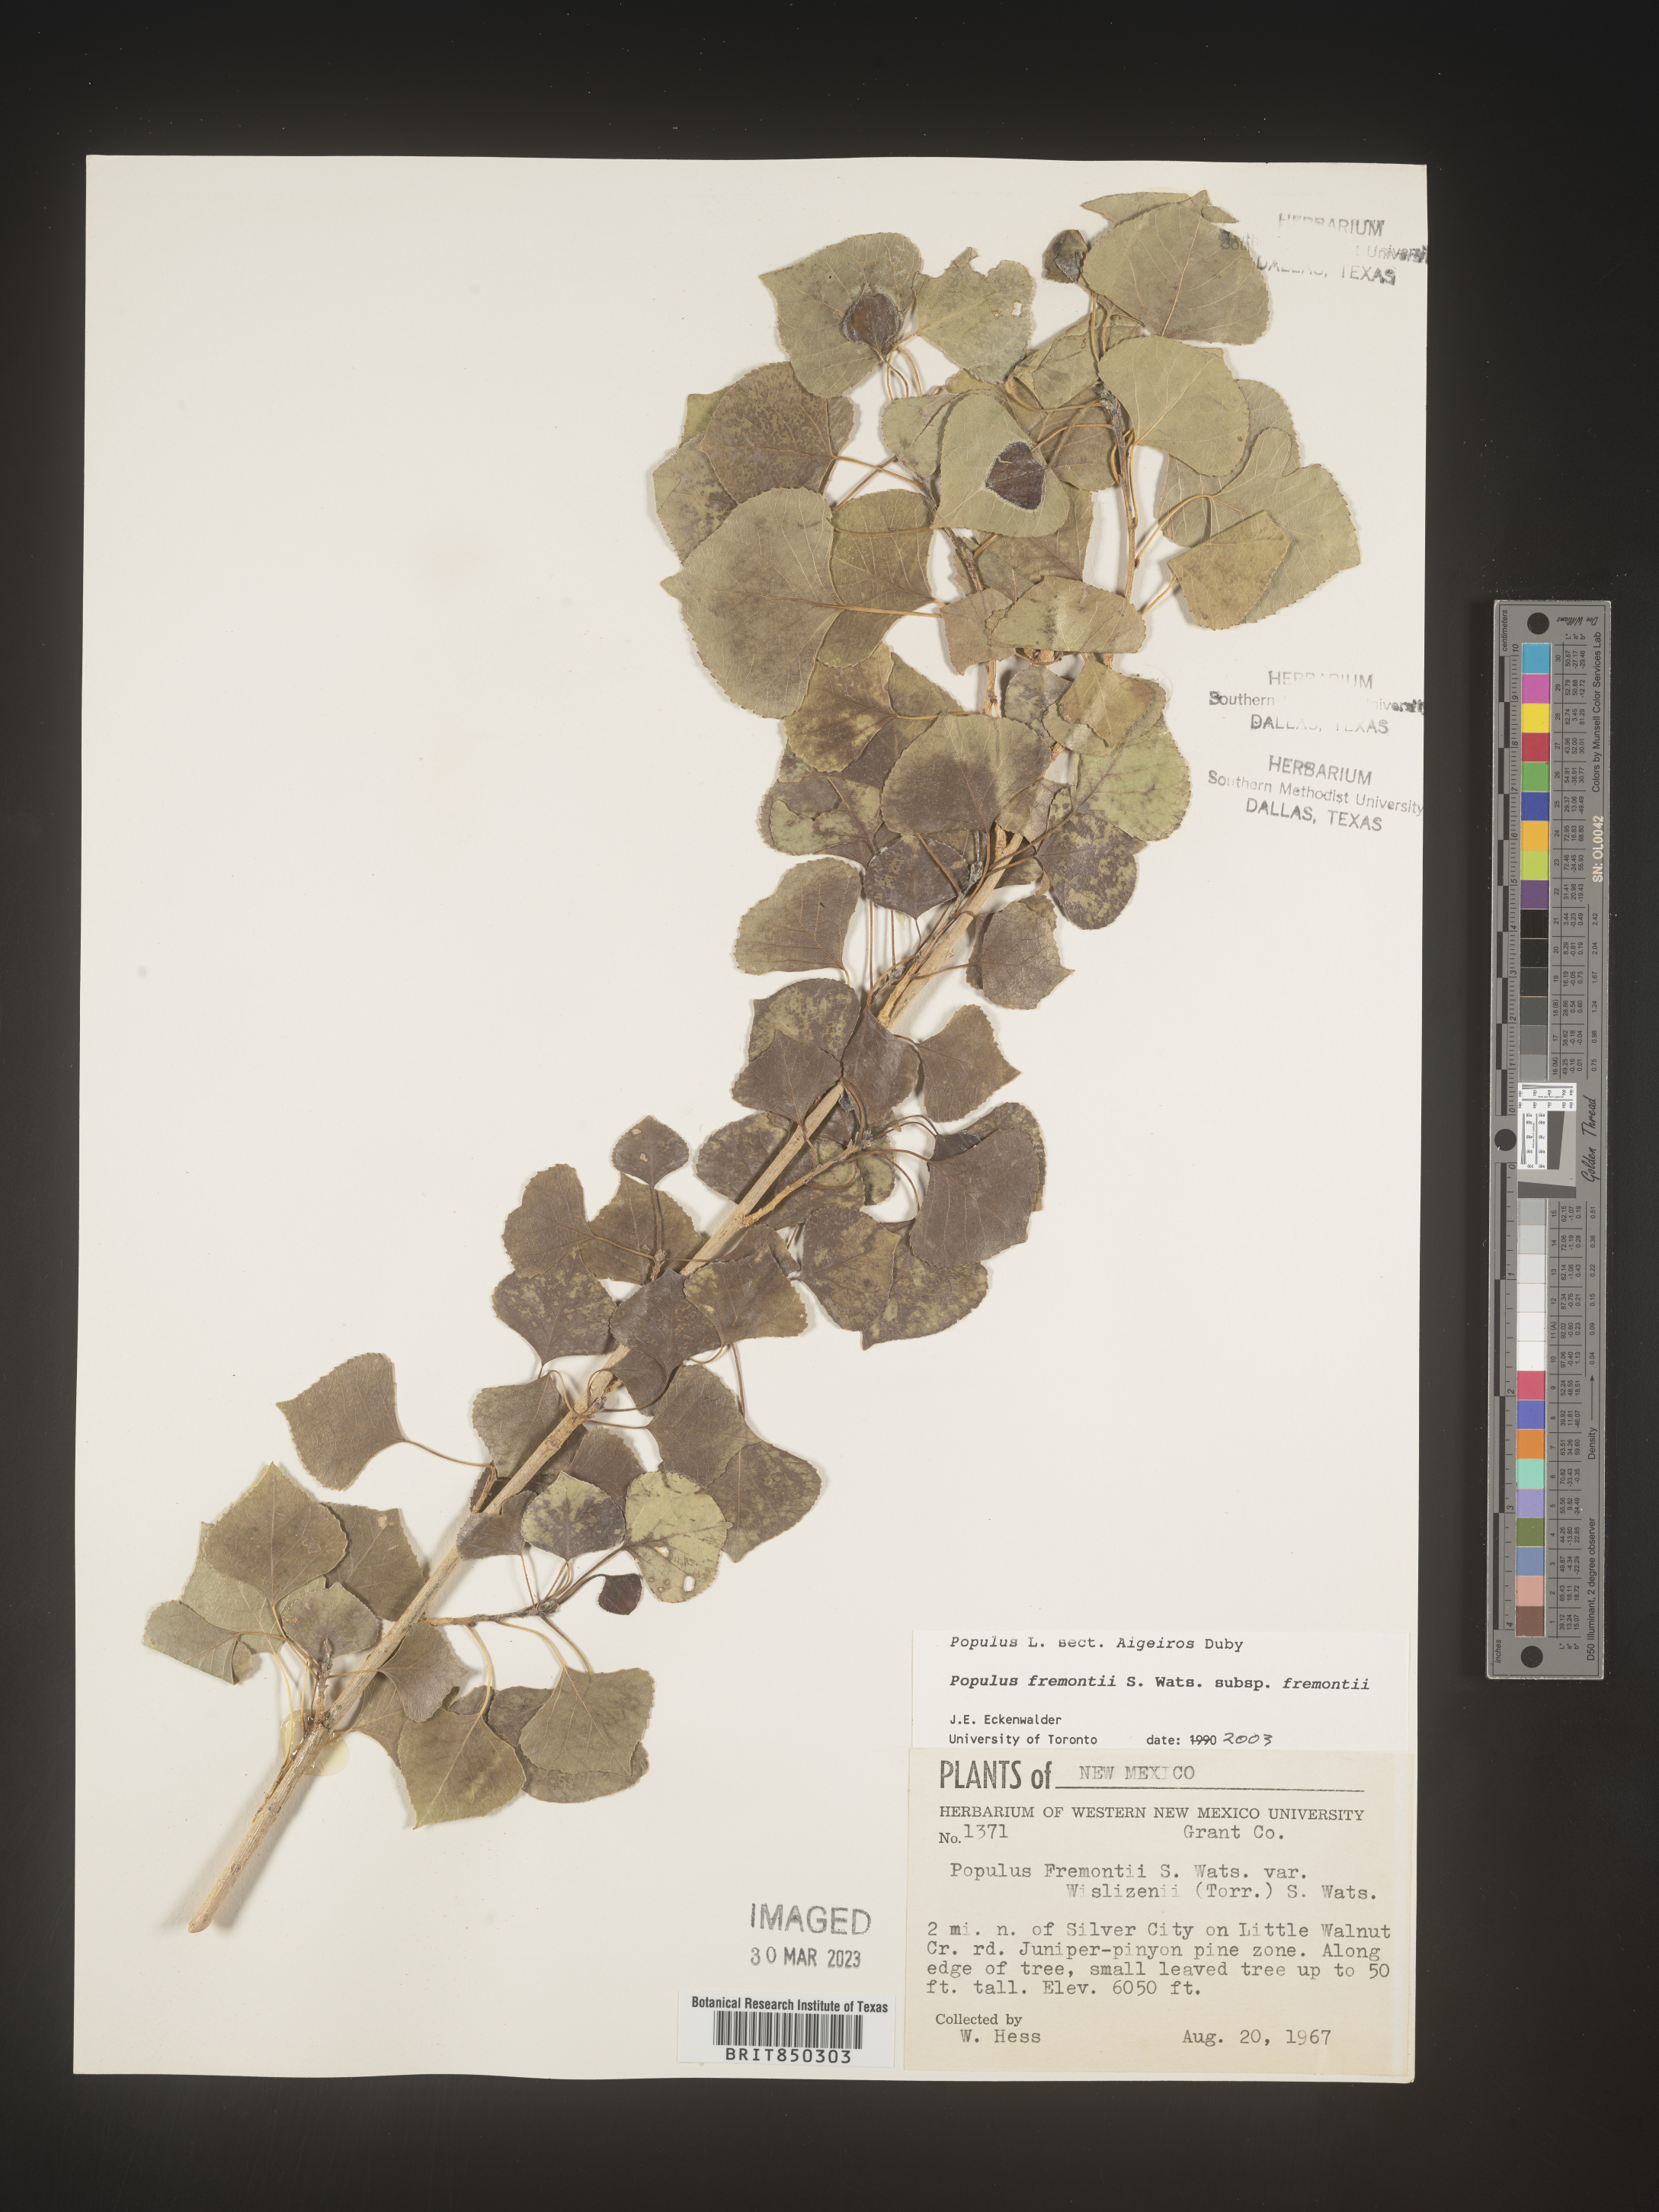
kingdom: Plantae
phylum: Tracheophyta
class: Magnoliopsida
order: Malpighiales
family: Salicaceae
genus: Populus
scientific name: Populus fremontii
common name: Fremont's cottonwood
